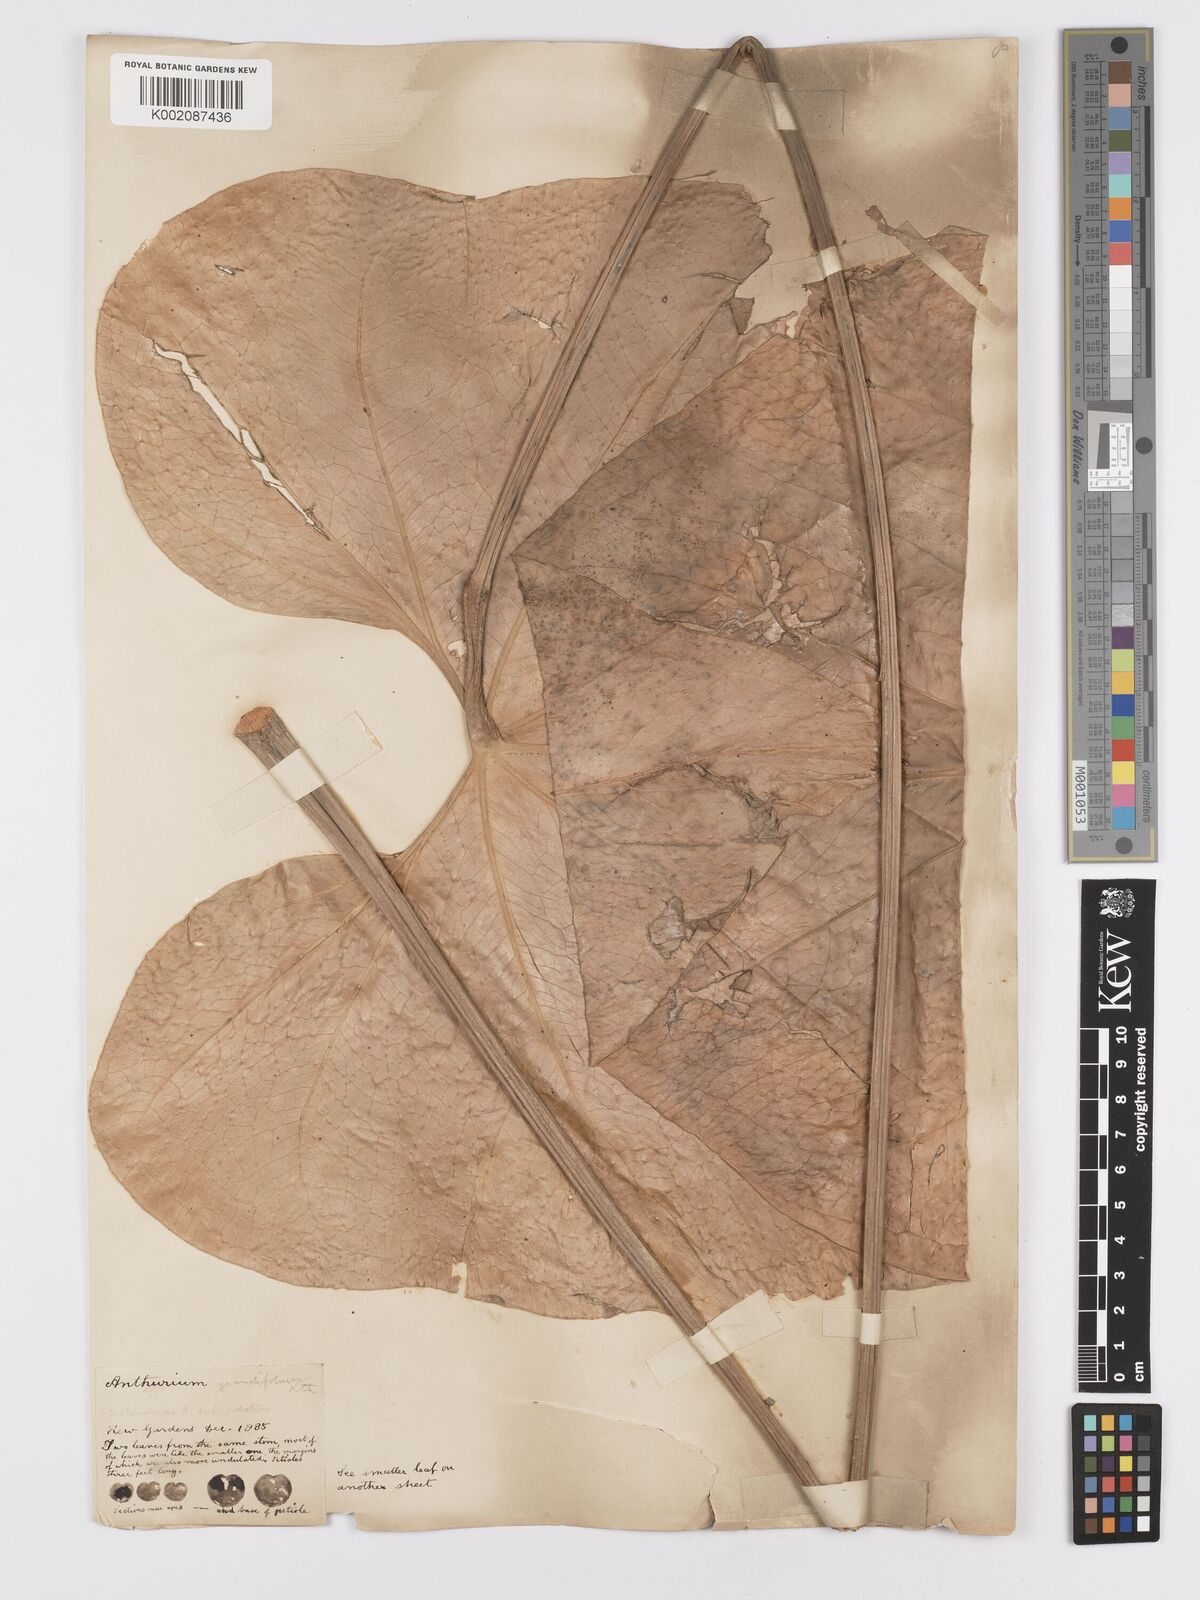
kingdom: Plantae
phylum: Tracheophyta
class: Liliopsida
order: Alismatales
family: Araceae
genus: Anthurium
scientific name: Anthurium
